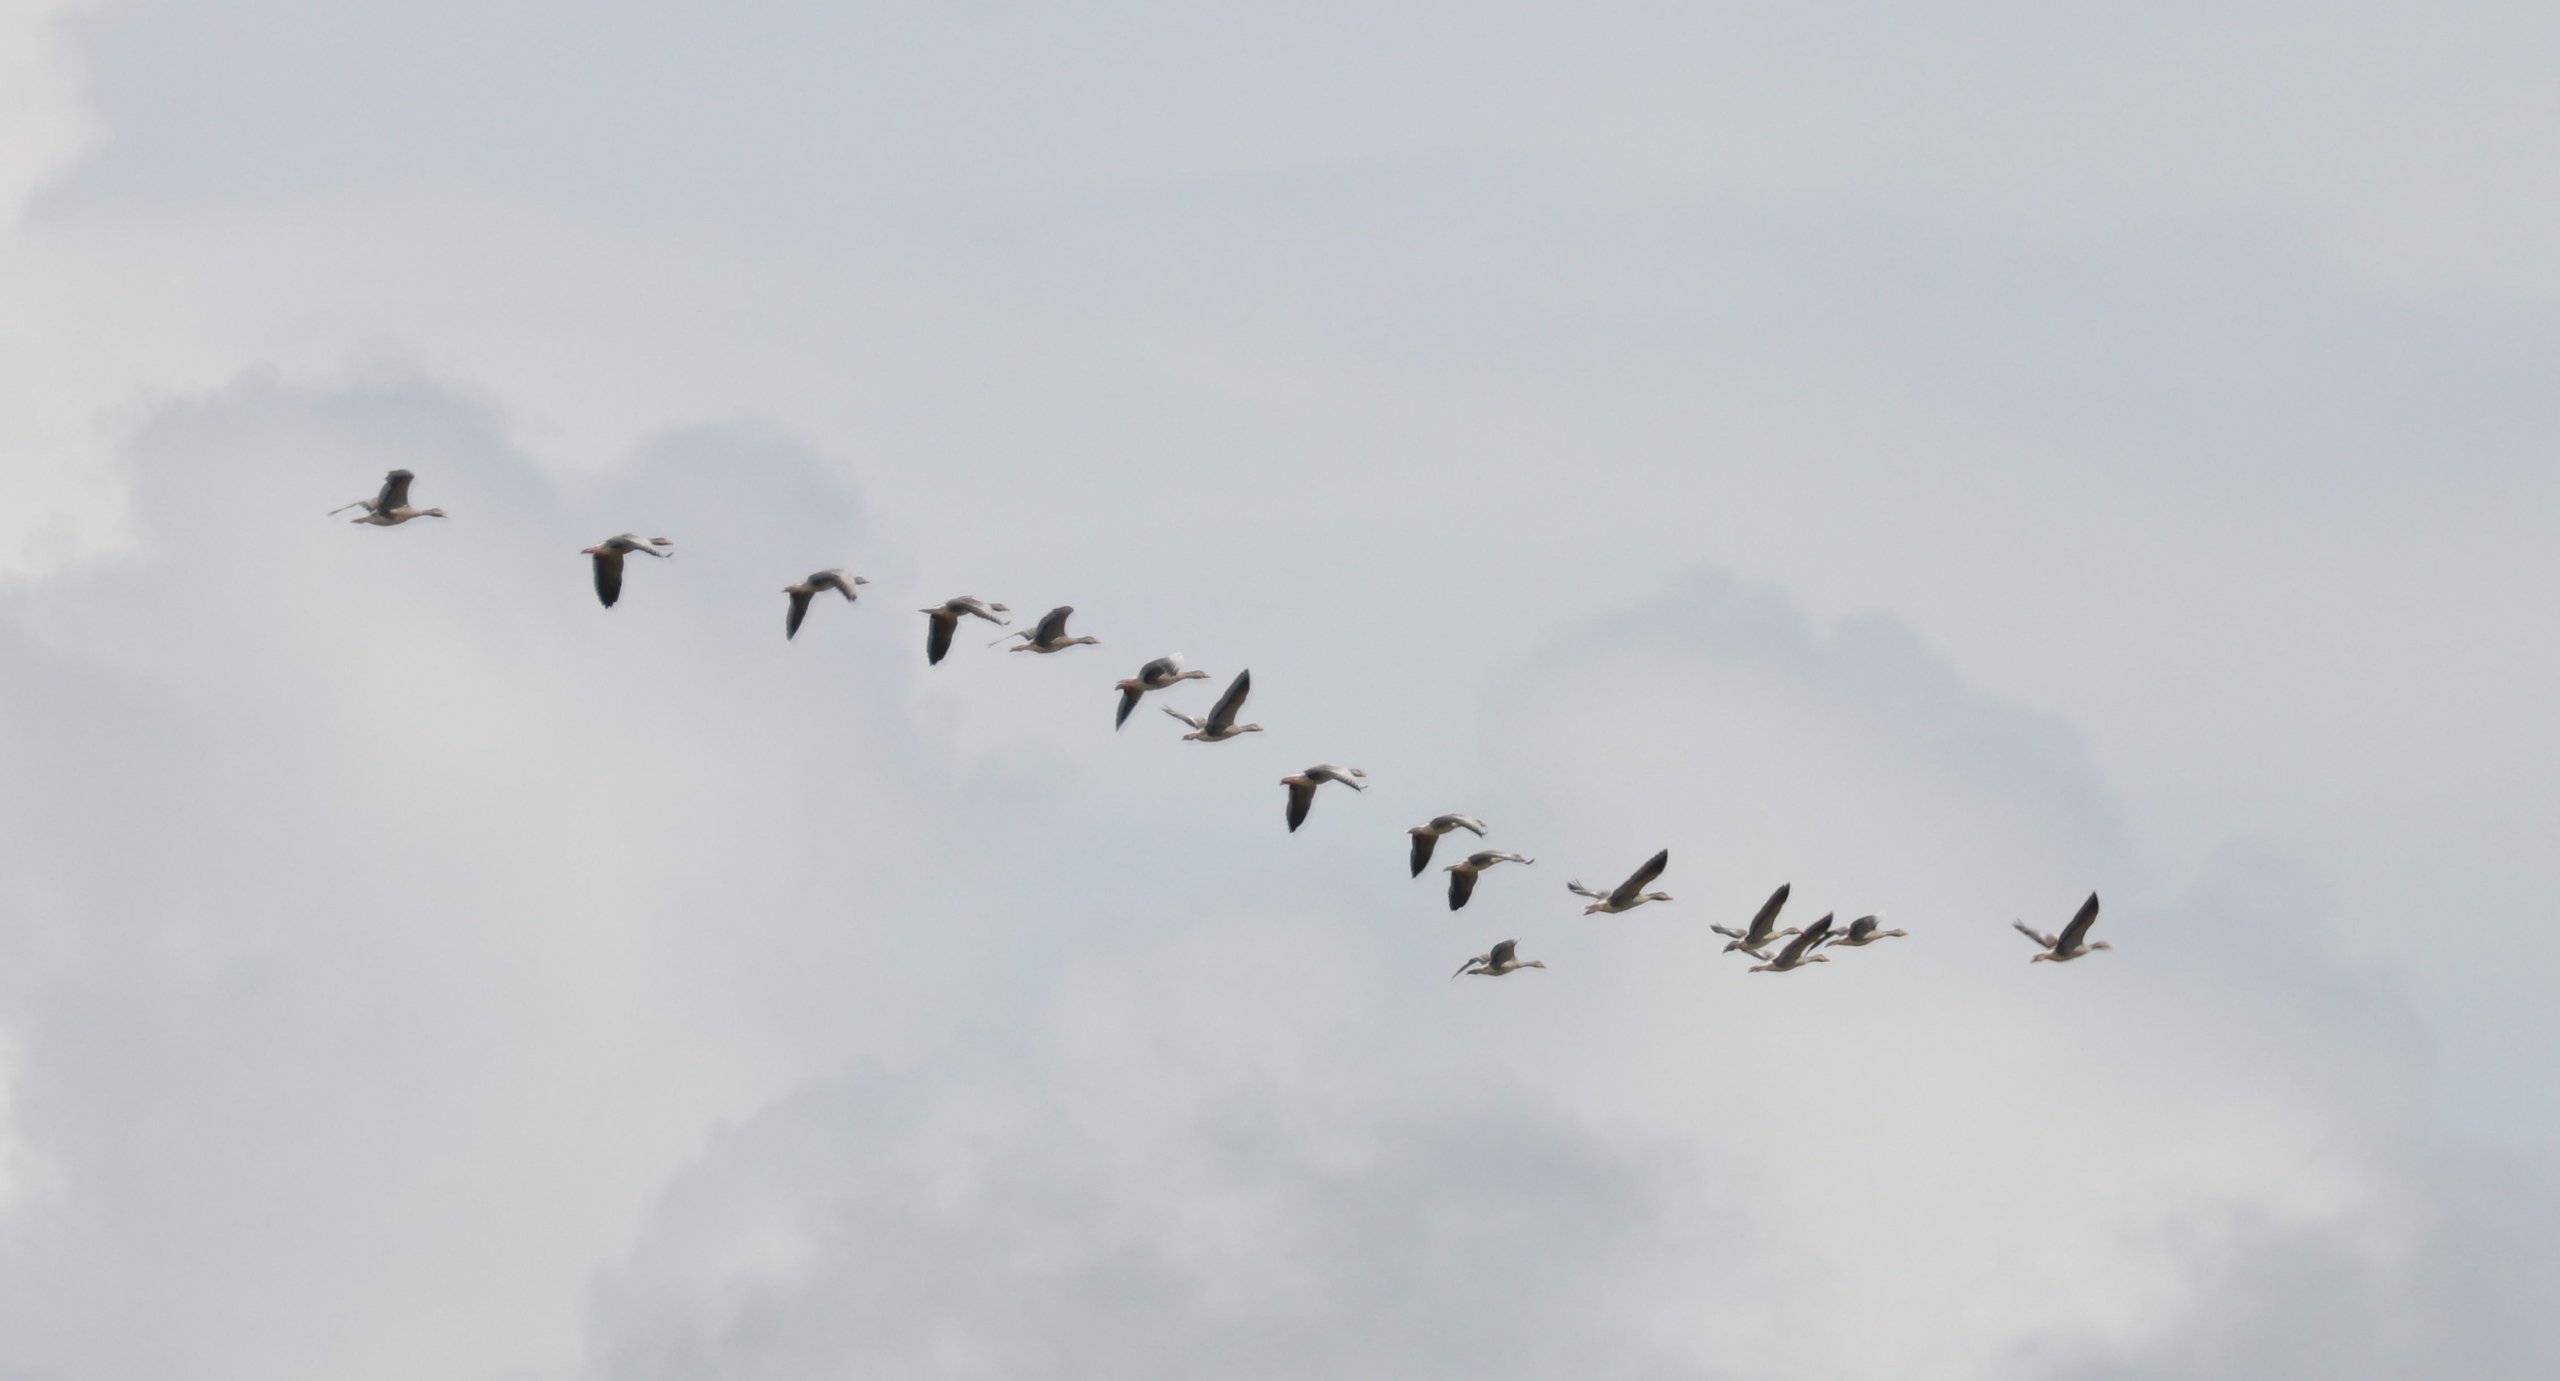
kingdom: Animalia
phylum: Chordata
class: Aves
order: Anseriformes
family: Anatidae
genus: Anser
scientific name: Anser anser
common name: Grågås
